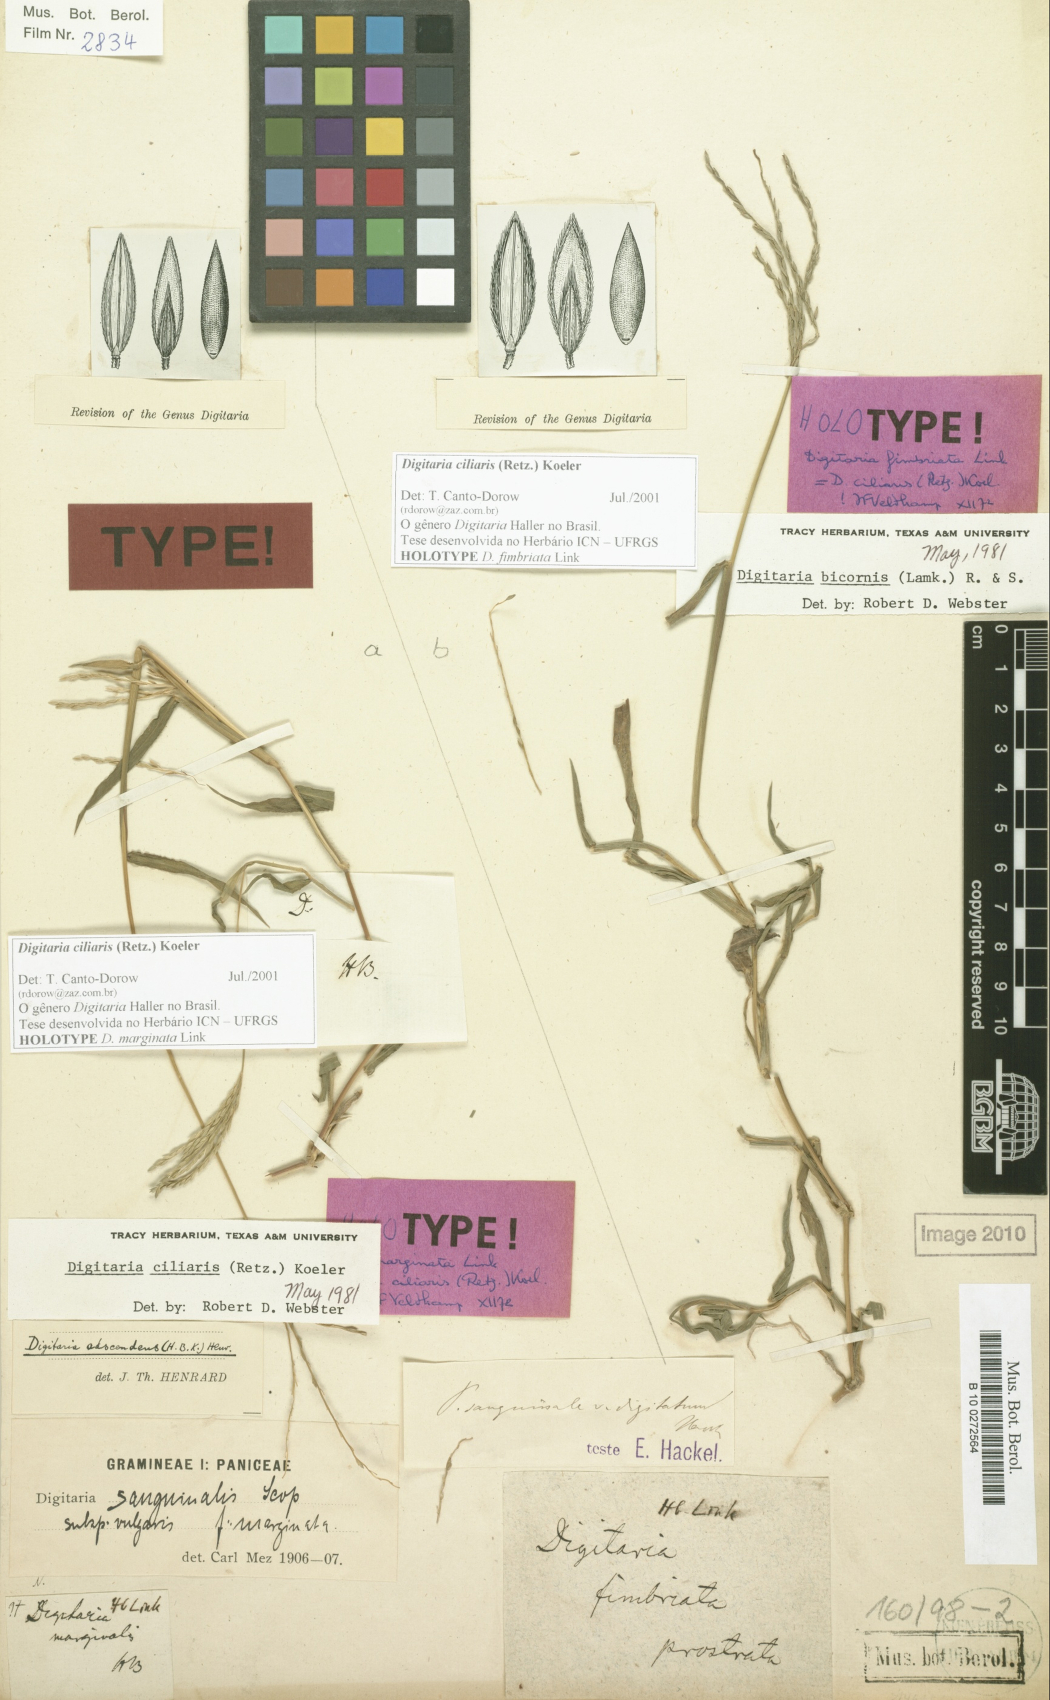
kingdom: Plantae
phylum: Tracheophyta
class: Liliopsida
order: Poales
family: Poaceae
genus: Digitaria
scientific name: Digitaria ciliaris
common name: Tropical finger-grass
